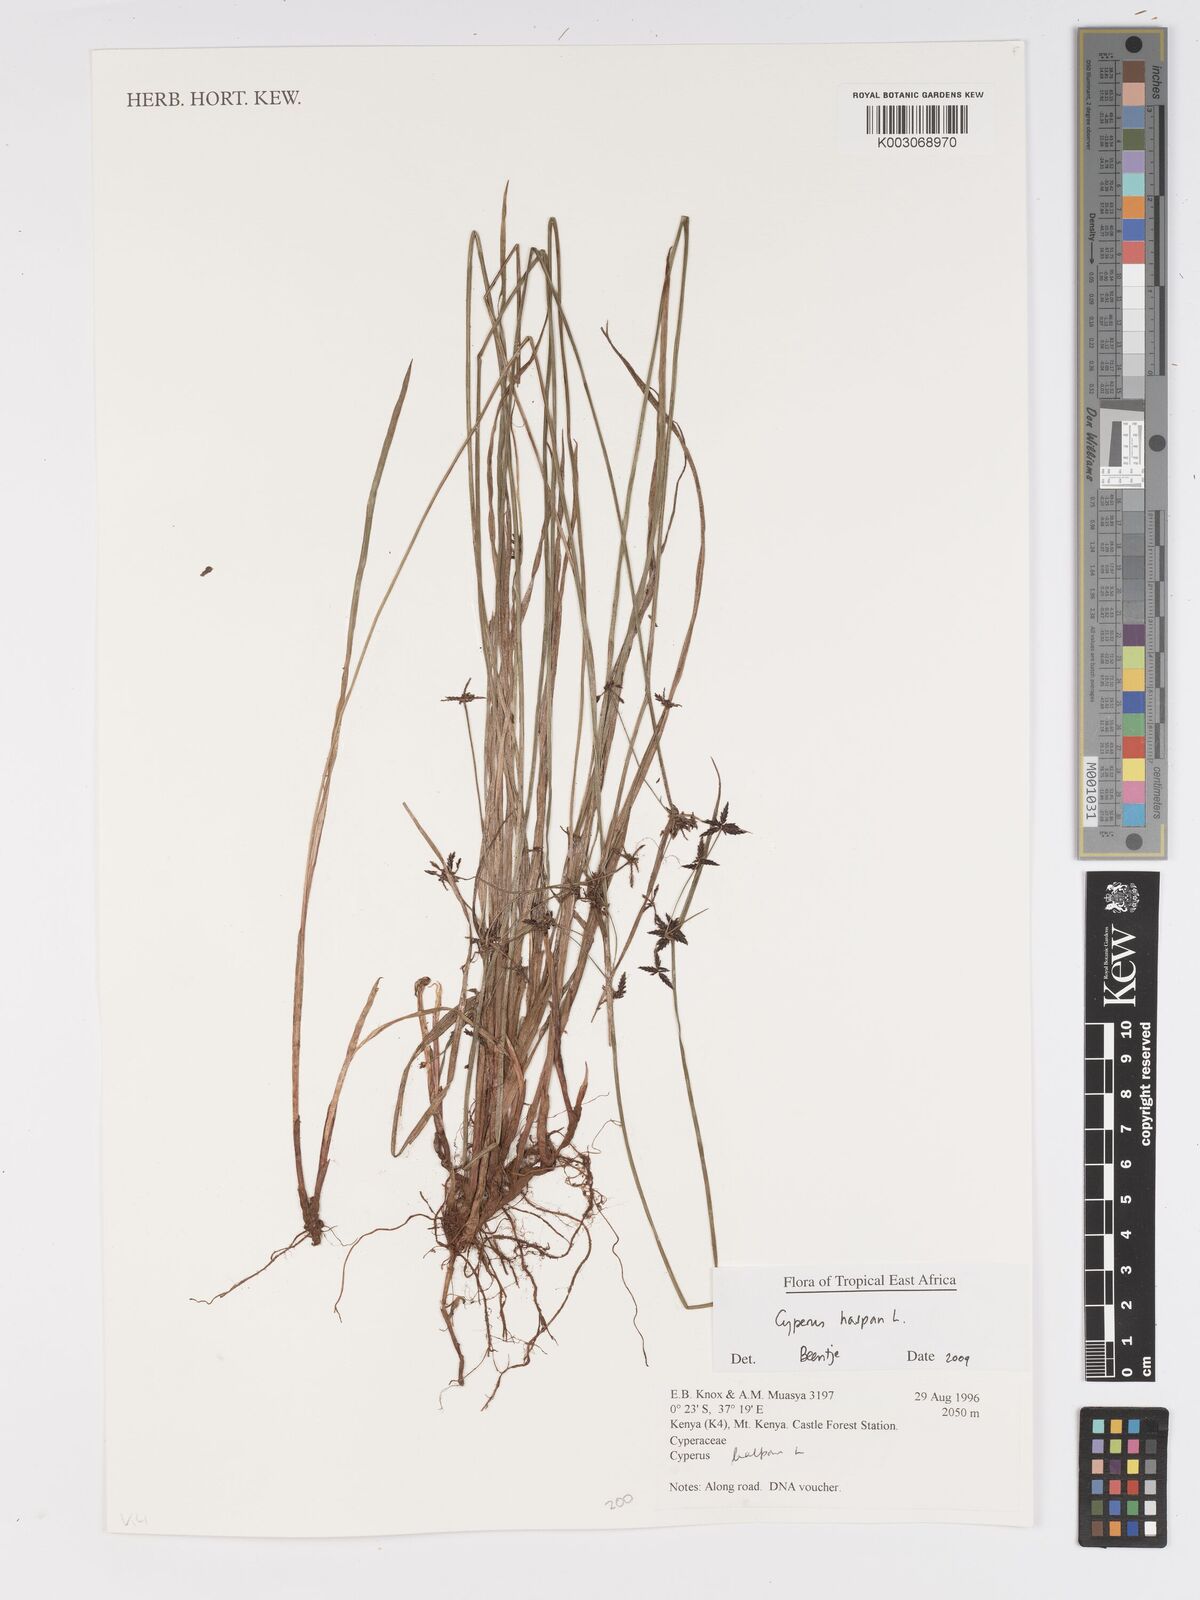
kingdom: Plantae
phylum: Tracheophyta
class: Liliopsida
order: Poales
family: Cyperaceae
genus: Cyperus
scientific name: Cyperus haspan
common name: Haspan flatsedge
